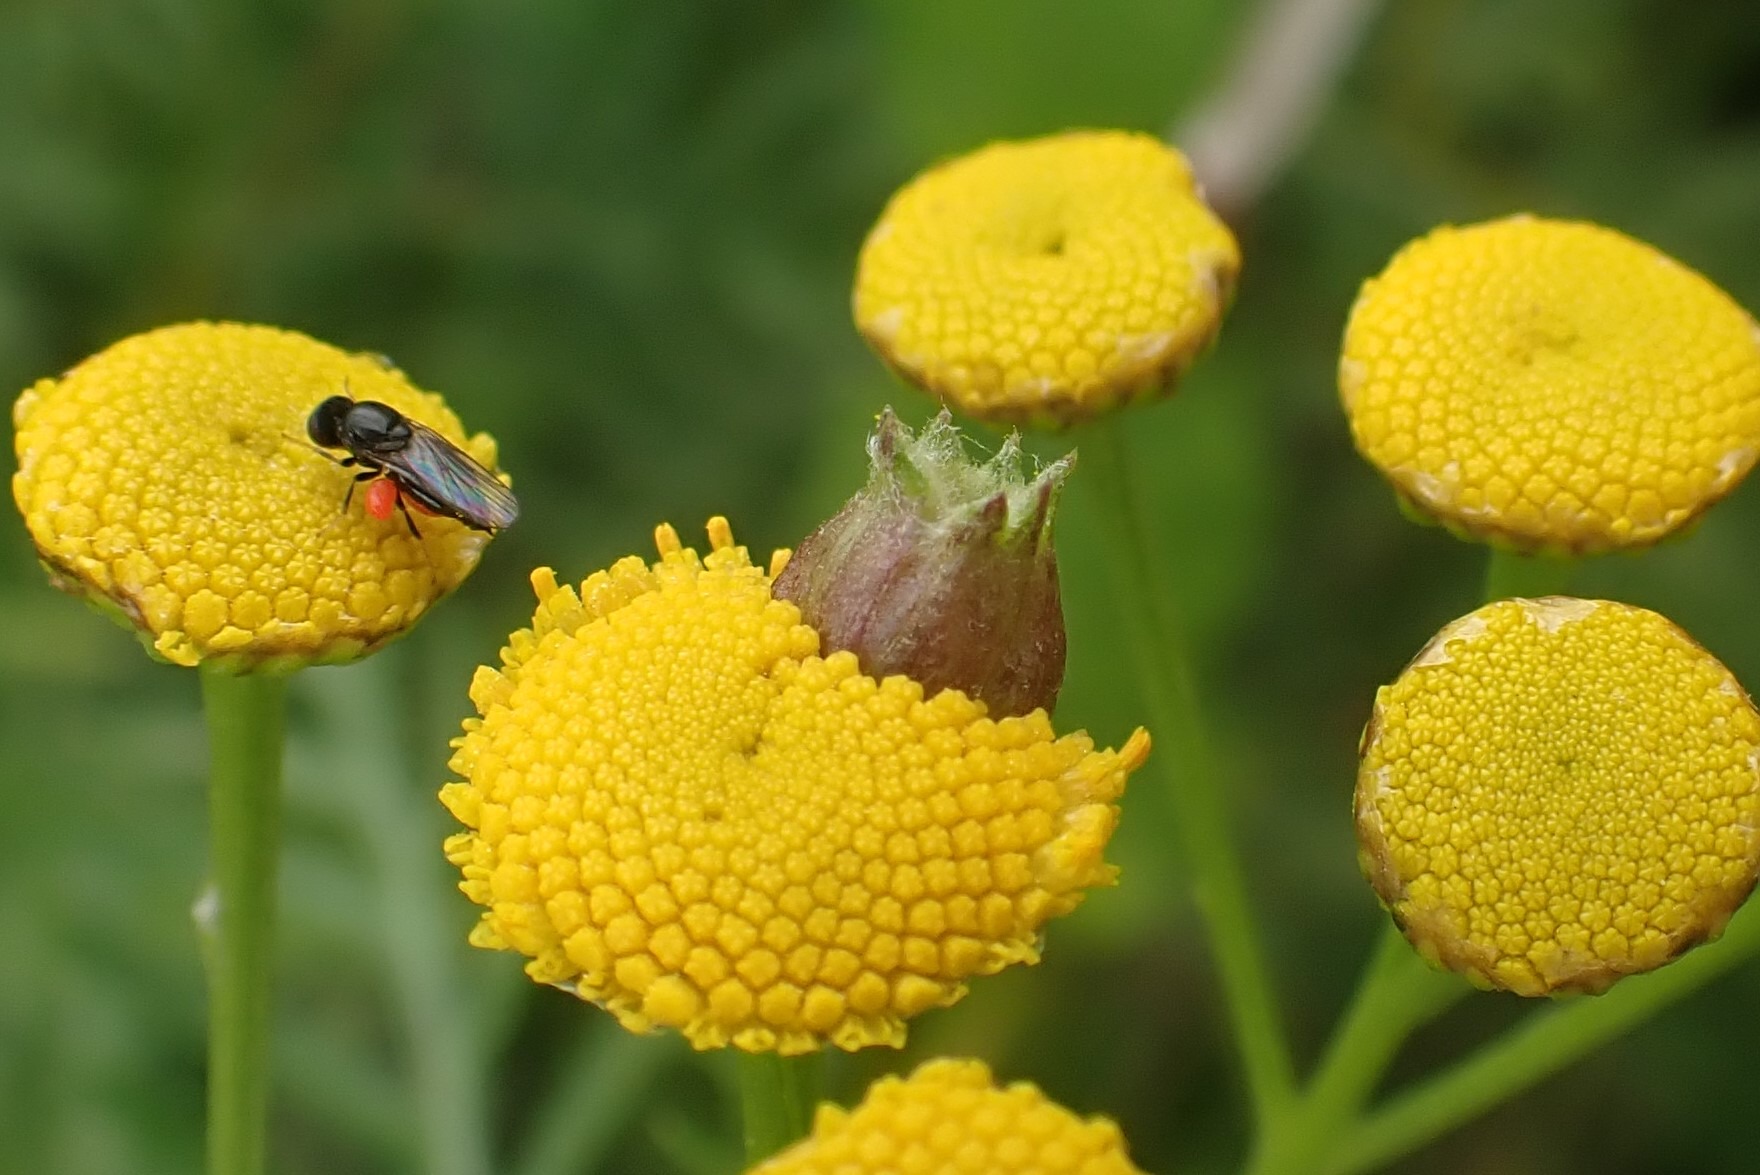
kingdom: Animalia
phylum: Arthropoda
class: Insecta
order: Diptera
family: Cecidomyiidae
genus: Rhopalomyia
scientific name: Rhopalomyia tanaceticolus
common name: Rejnfangalmyg
